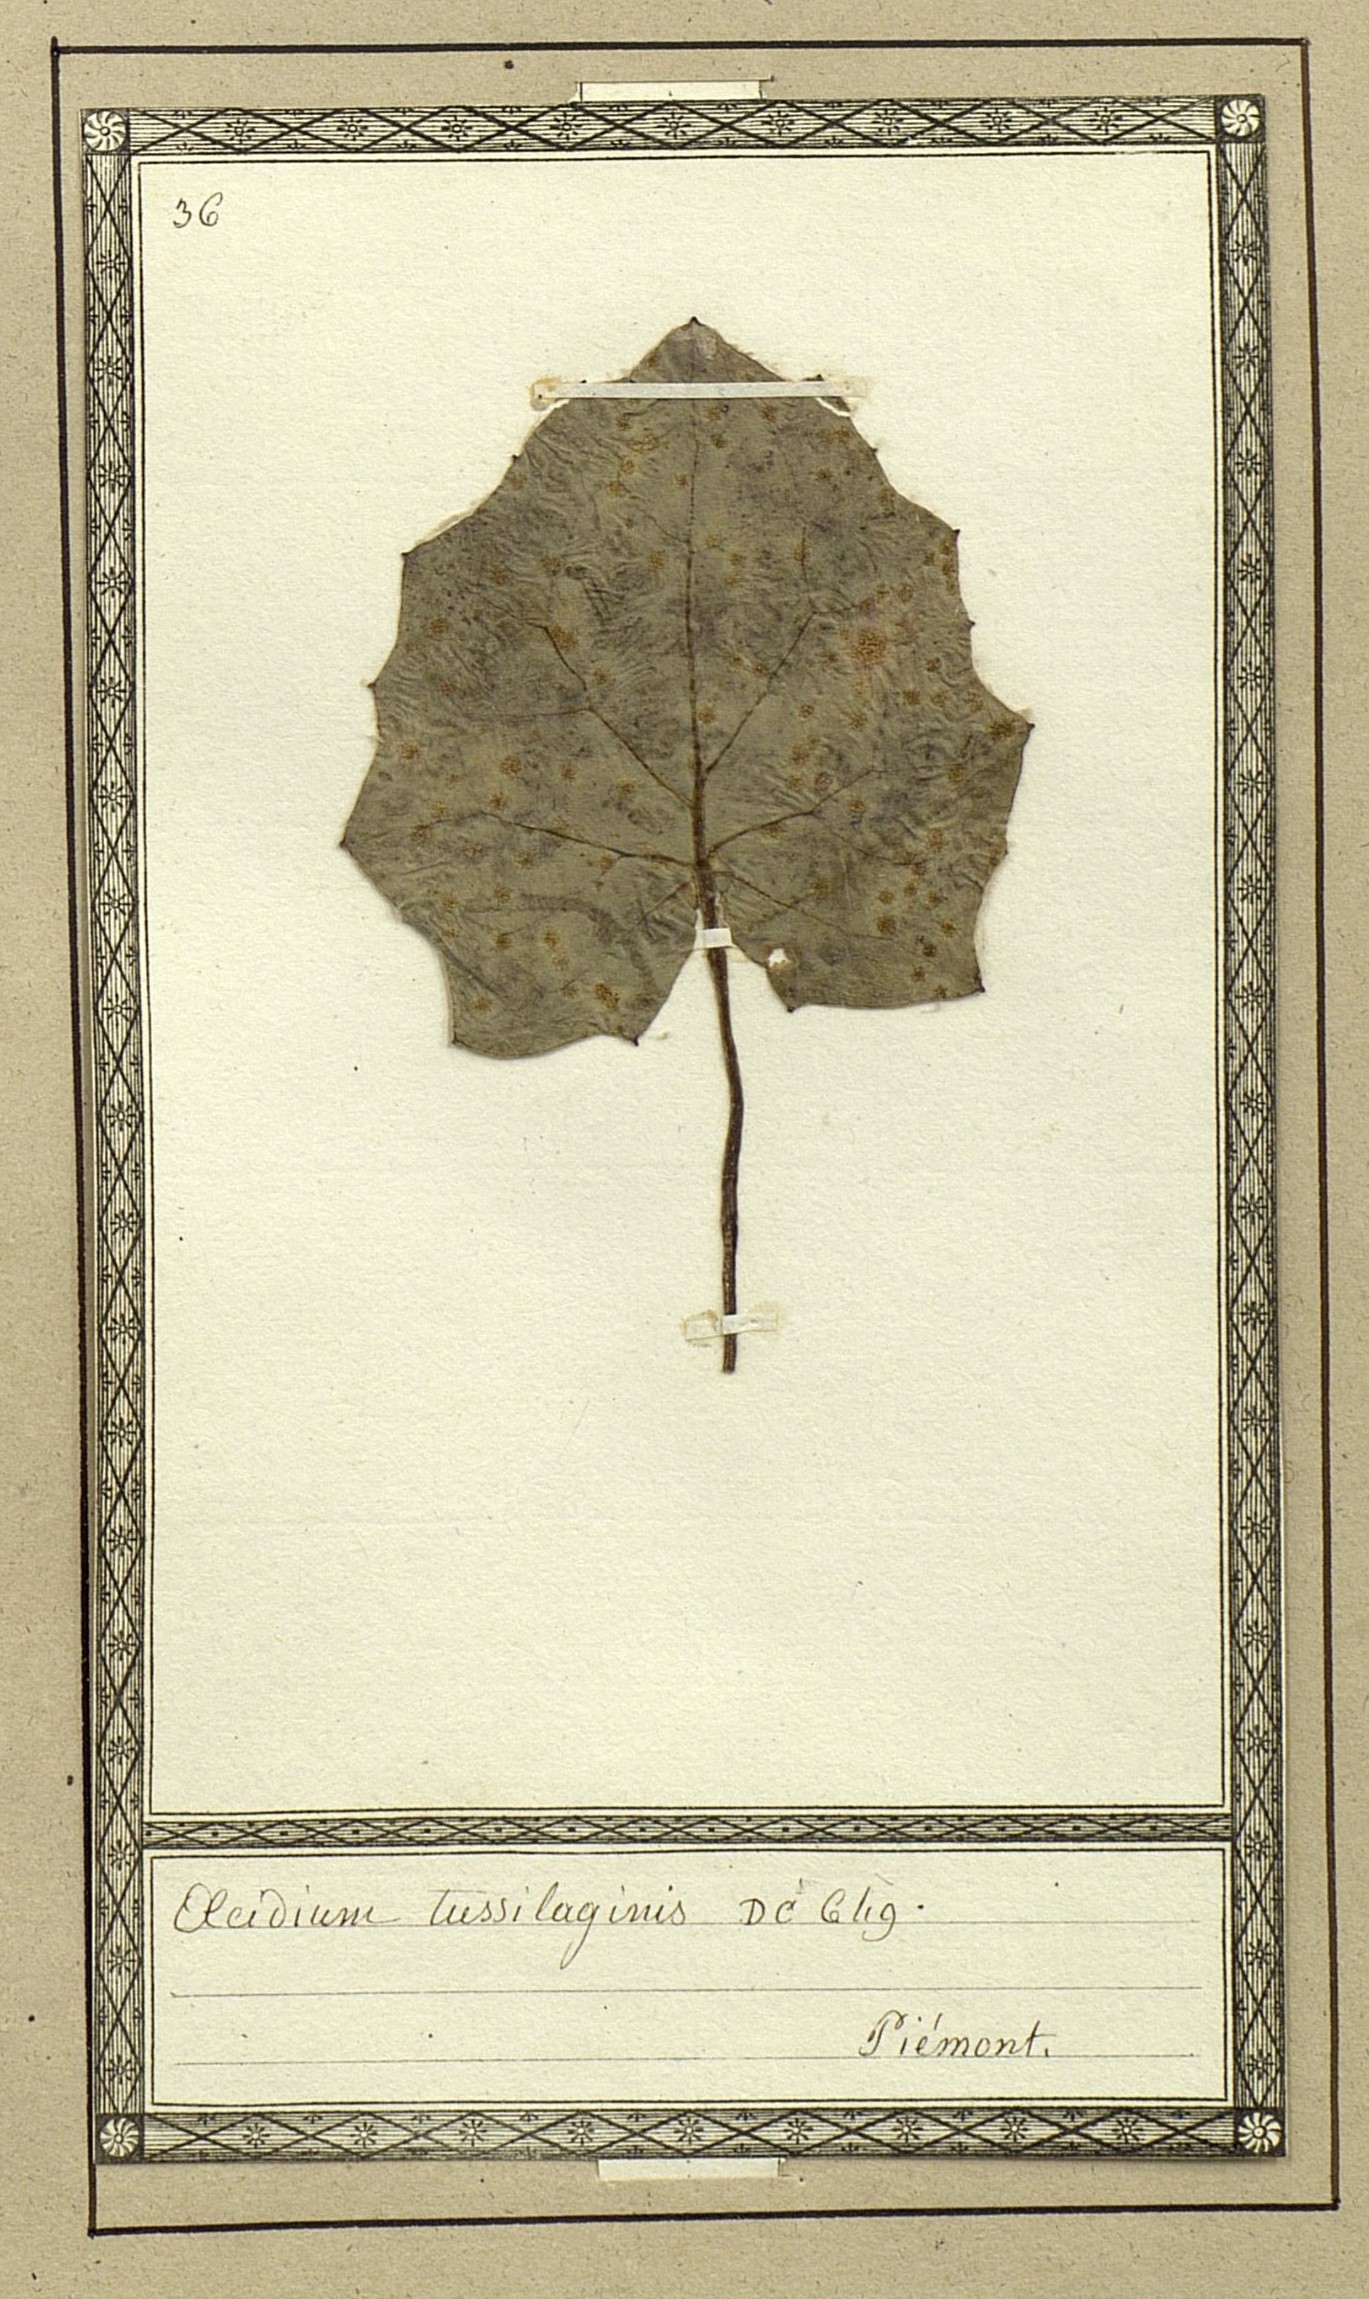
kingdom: Fungi
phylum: Basidiomycota
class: Pucciniomycetes
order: Pucciniales
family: Pucciniaceae
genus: Aecidium
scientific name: Aecidium tussilaginis
